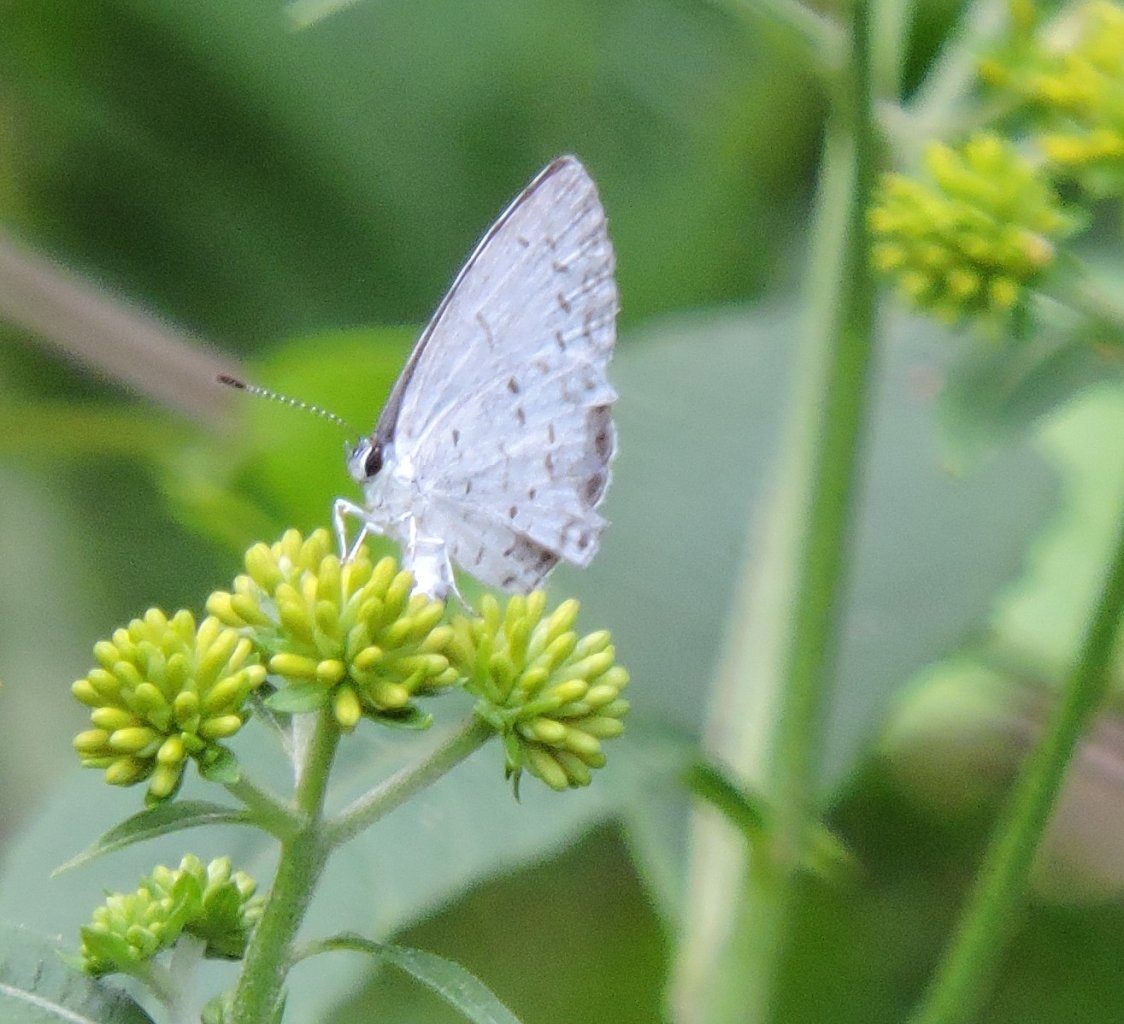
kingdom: Animalia
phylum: Arthropoda
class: Insecta
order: Lepidoptera
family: Lycaenidae
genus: Cyaniris
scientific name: Cyaniris neglecta
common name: Summer Azure
